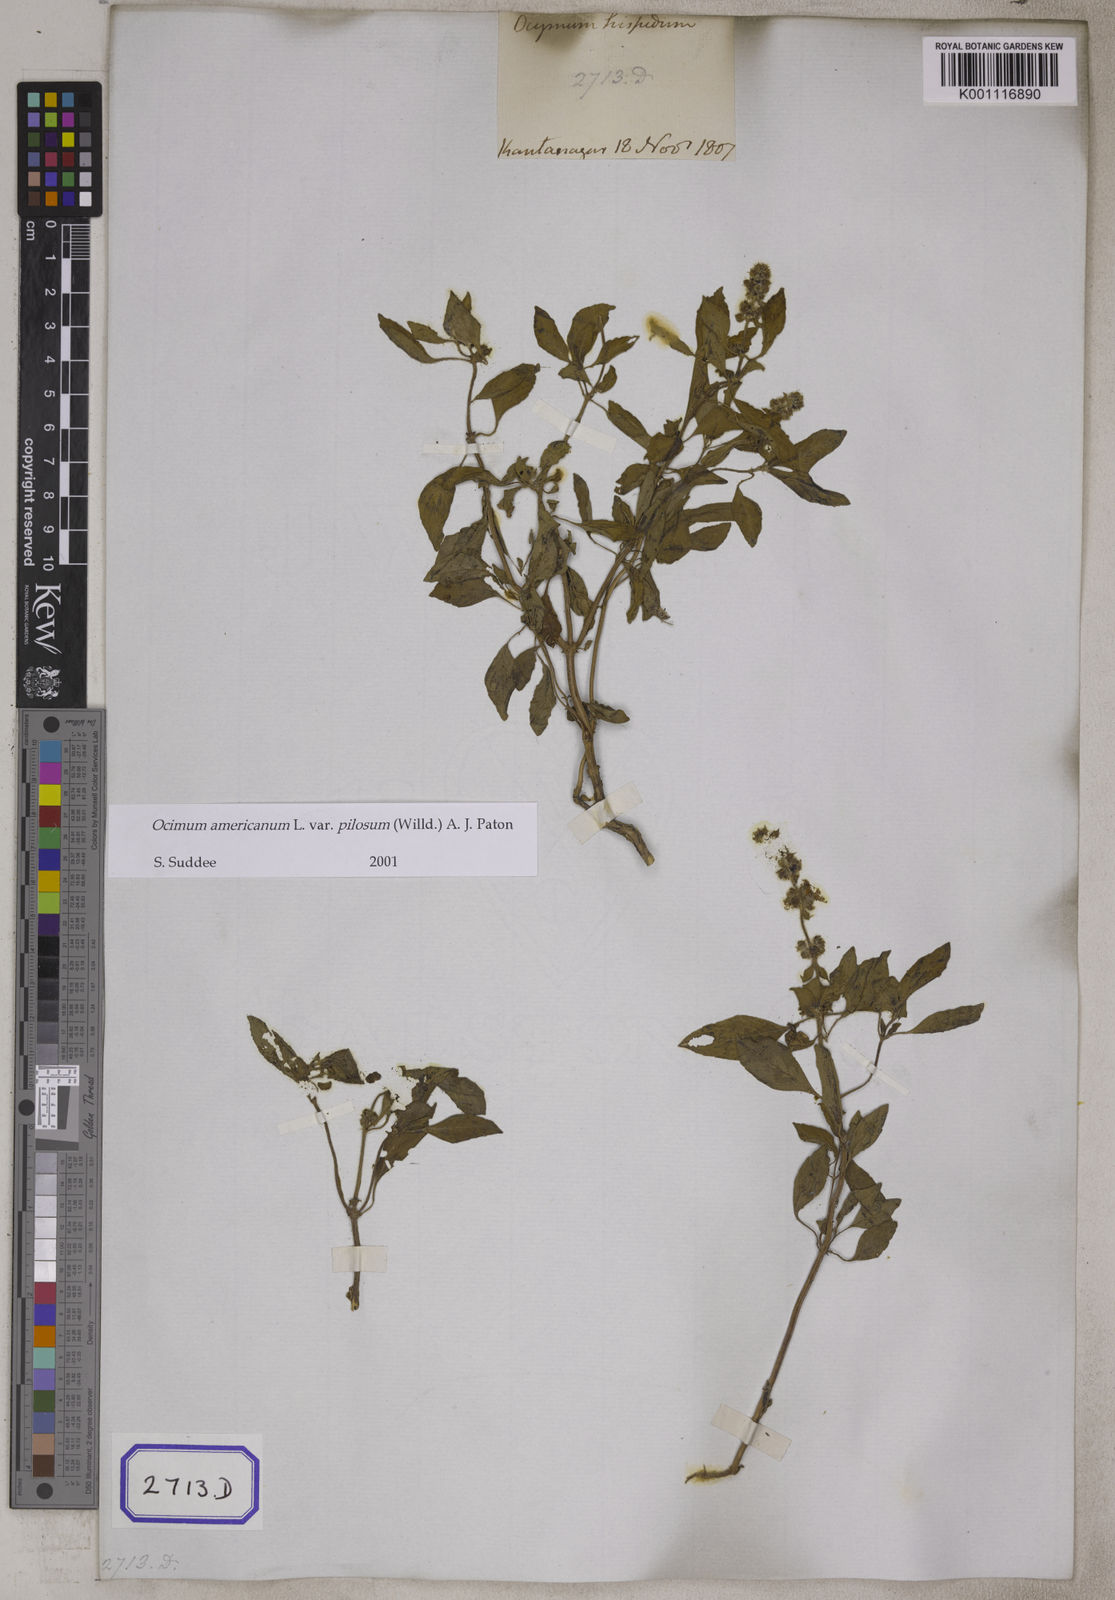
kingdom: Plantae
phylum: Tracheophyta
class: Magnoliopsida
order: Lamiales
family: Lamiaceae
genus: Ocimum
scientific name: Ocimum basilicum
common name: Sweet basil
